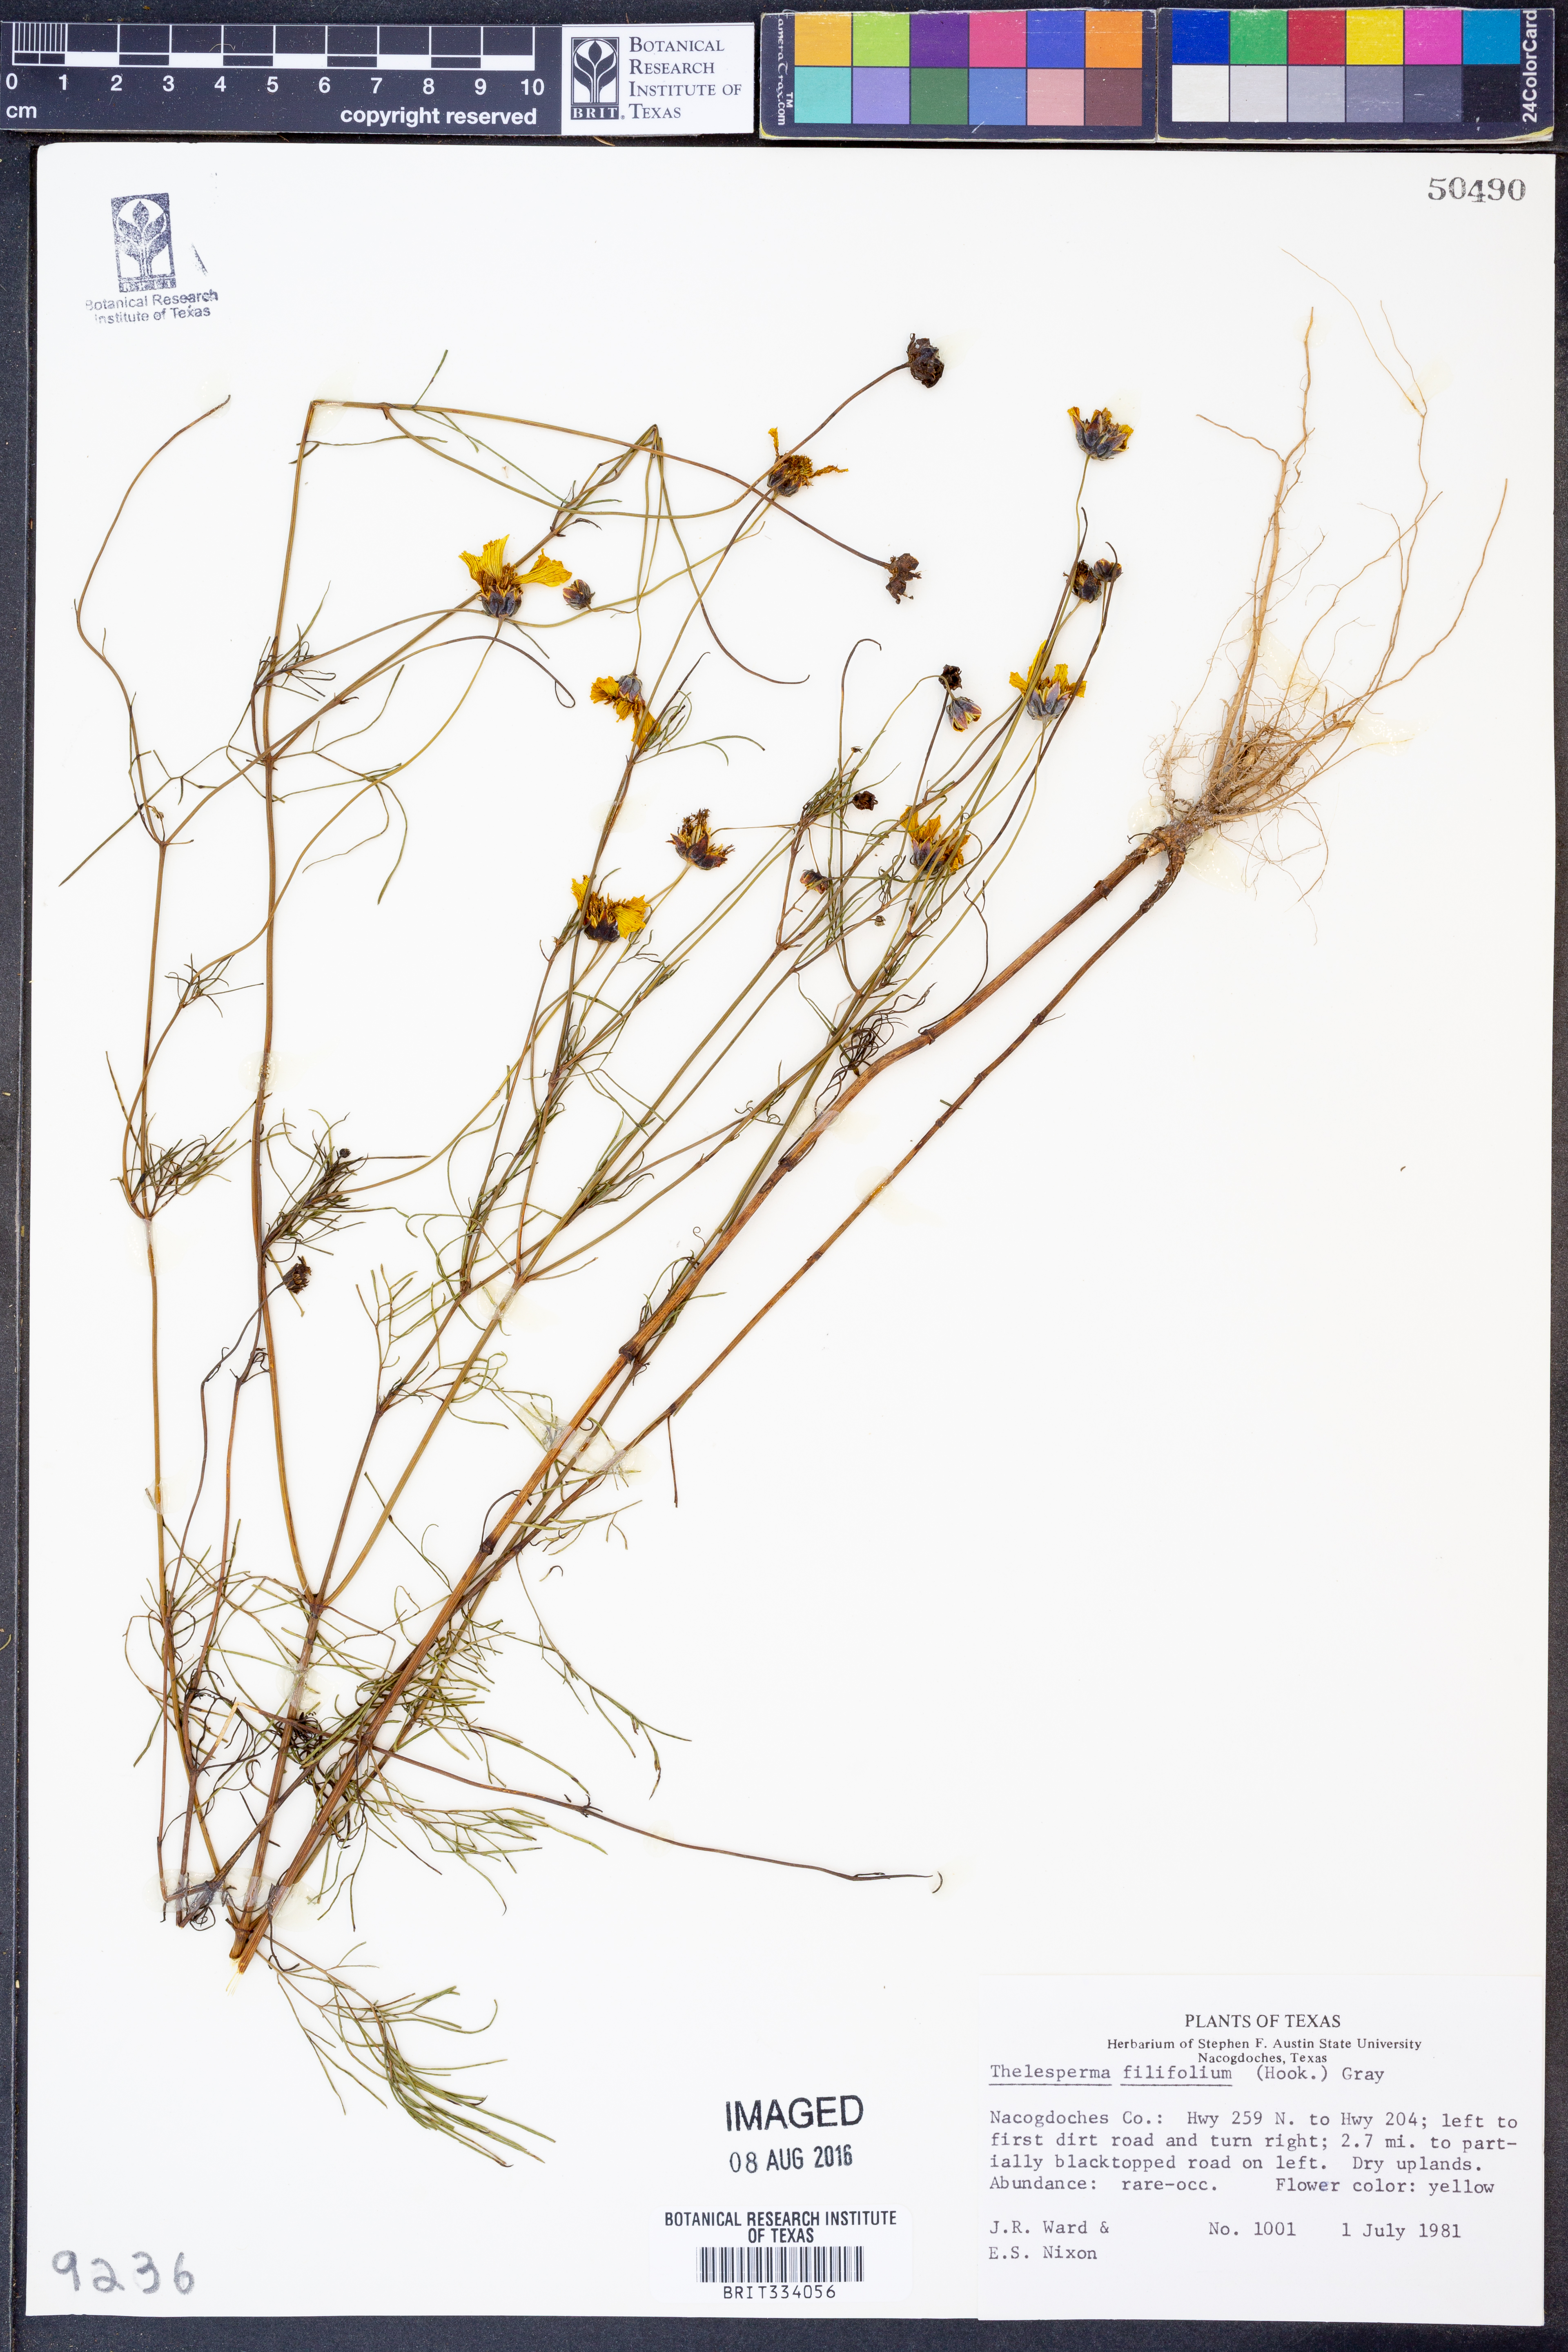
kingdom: Plantae
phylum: Tracheophyta
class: Magnoliopsida
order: Asterales
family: Asteraceae
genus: Thelesperma
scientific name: Thelesperma filifolium
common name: Stiff greenthread
